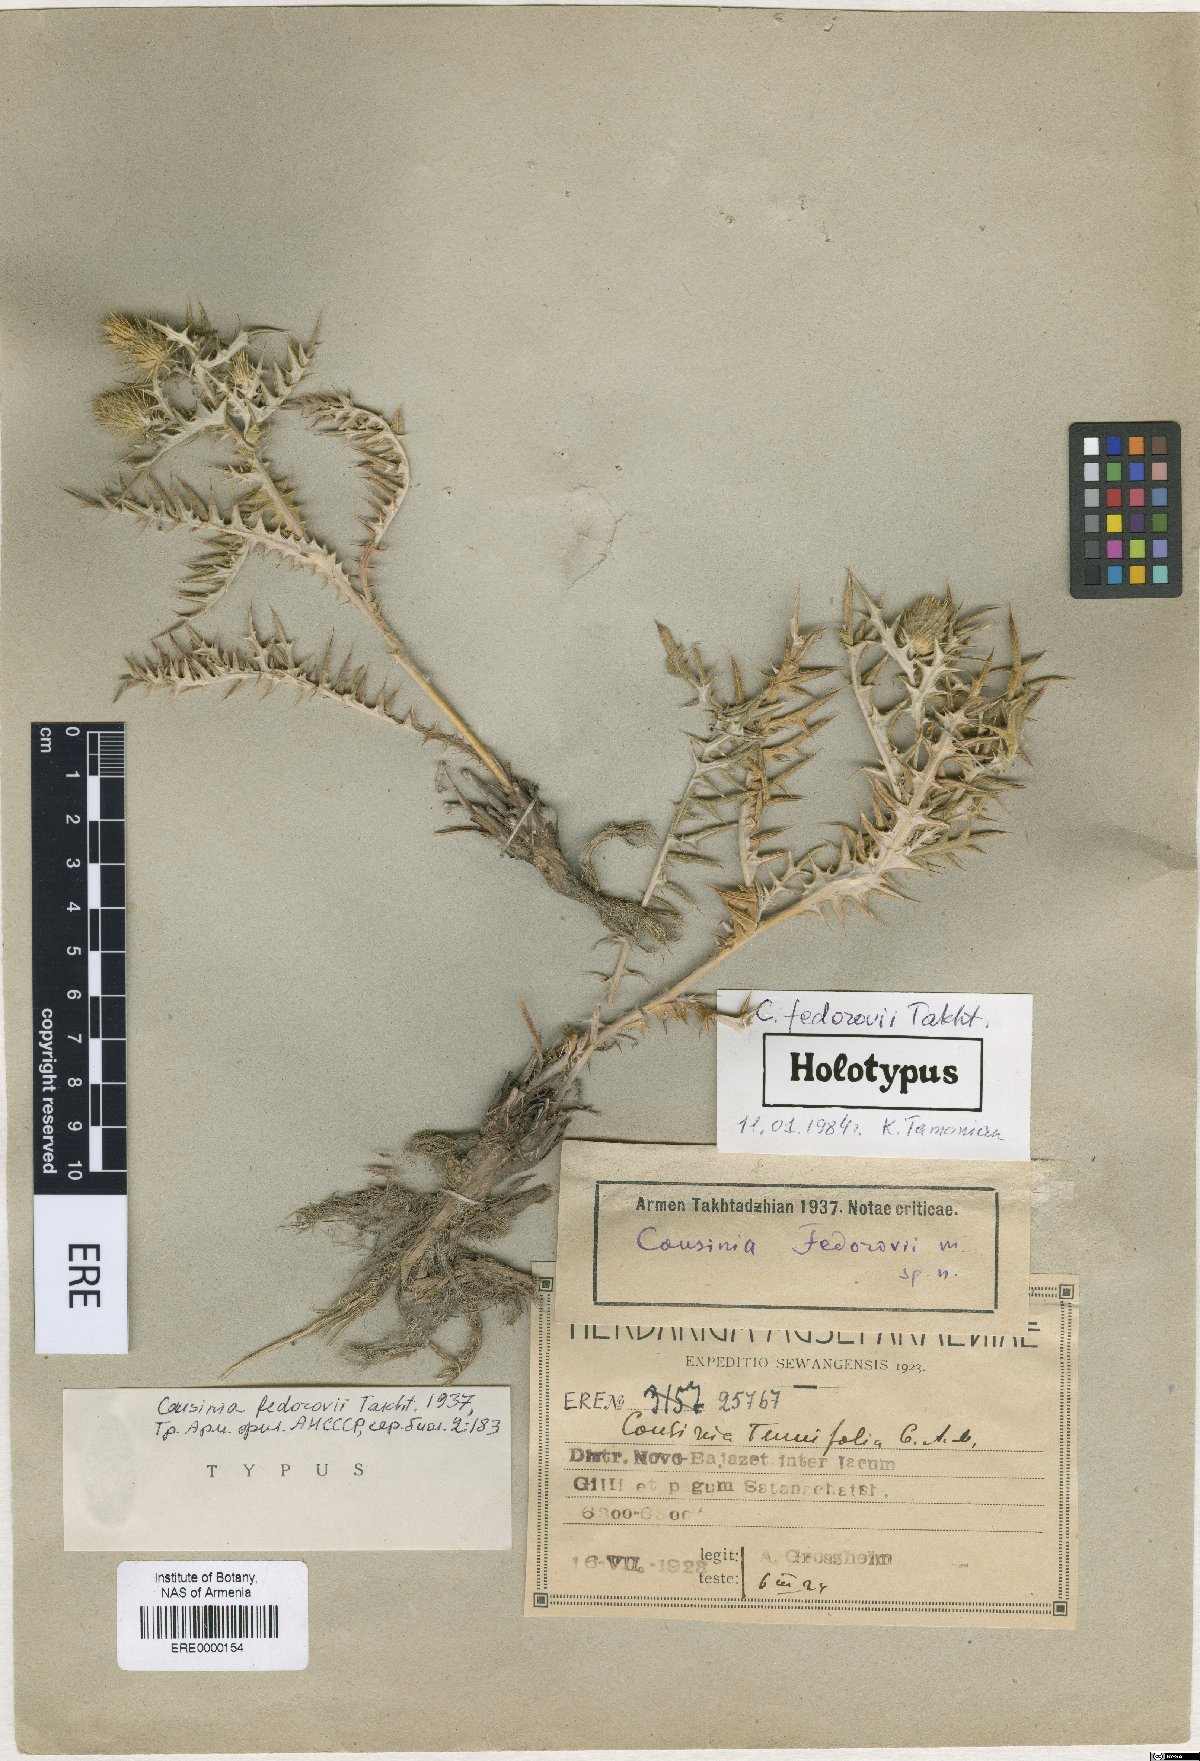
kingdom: Plantae
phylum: Tracheophyta
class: Magnoliopsida
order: Asterales
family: Asteraceae
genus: Cousinia
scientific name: Cousinia fedorovii
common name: Fedorov's cousinia
